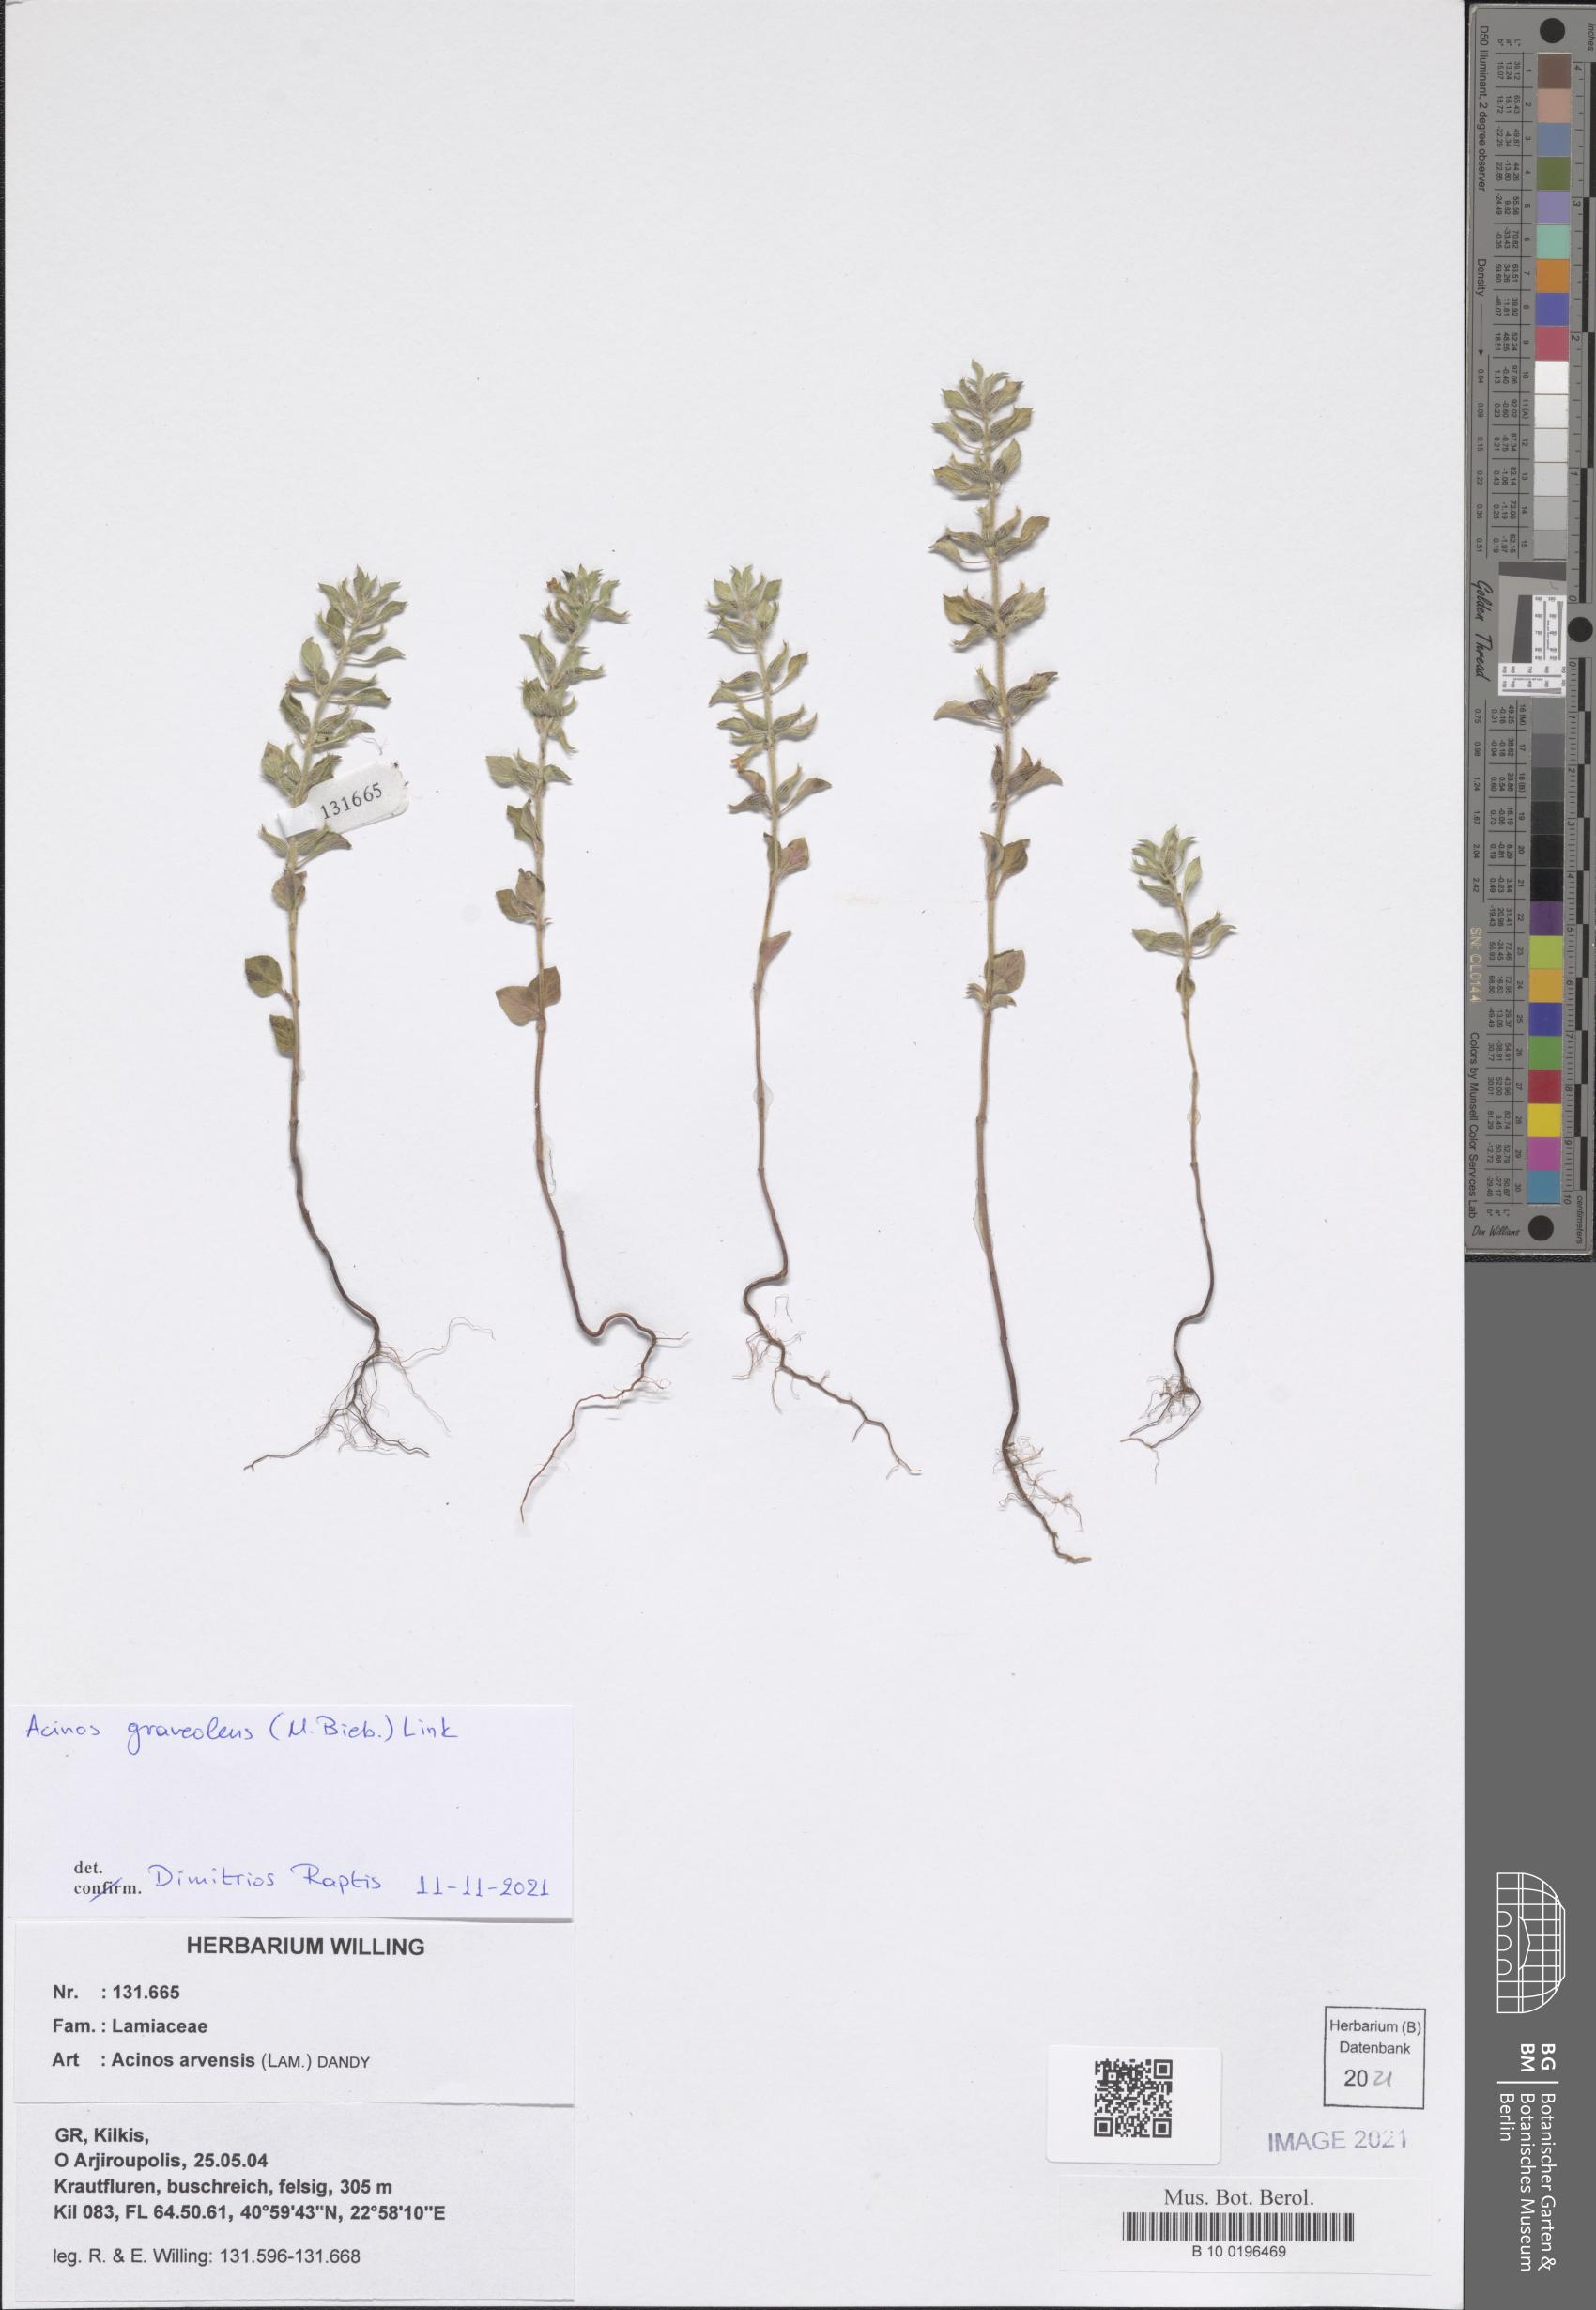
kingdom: Plantae
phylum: Tracheophyta
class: Magnoliopsida
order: Lamiales
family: Lamiaceae
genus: Clinopodium
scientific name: Clinopodium graveolens
